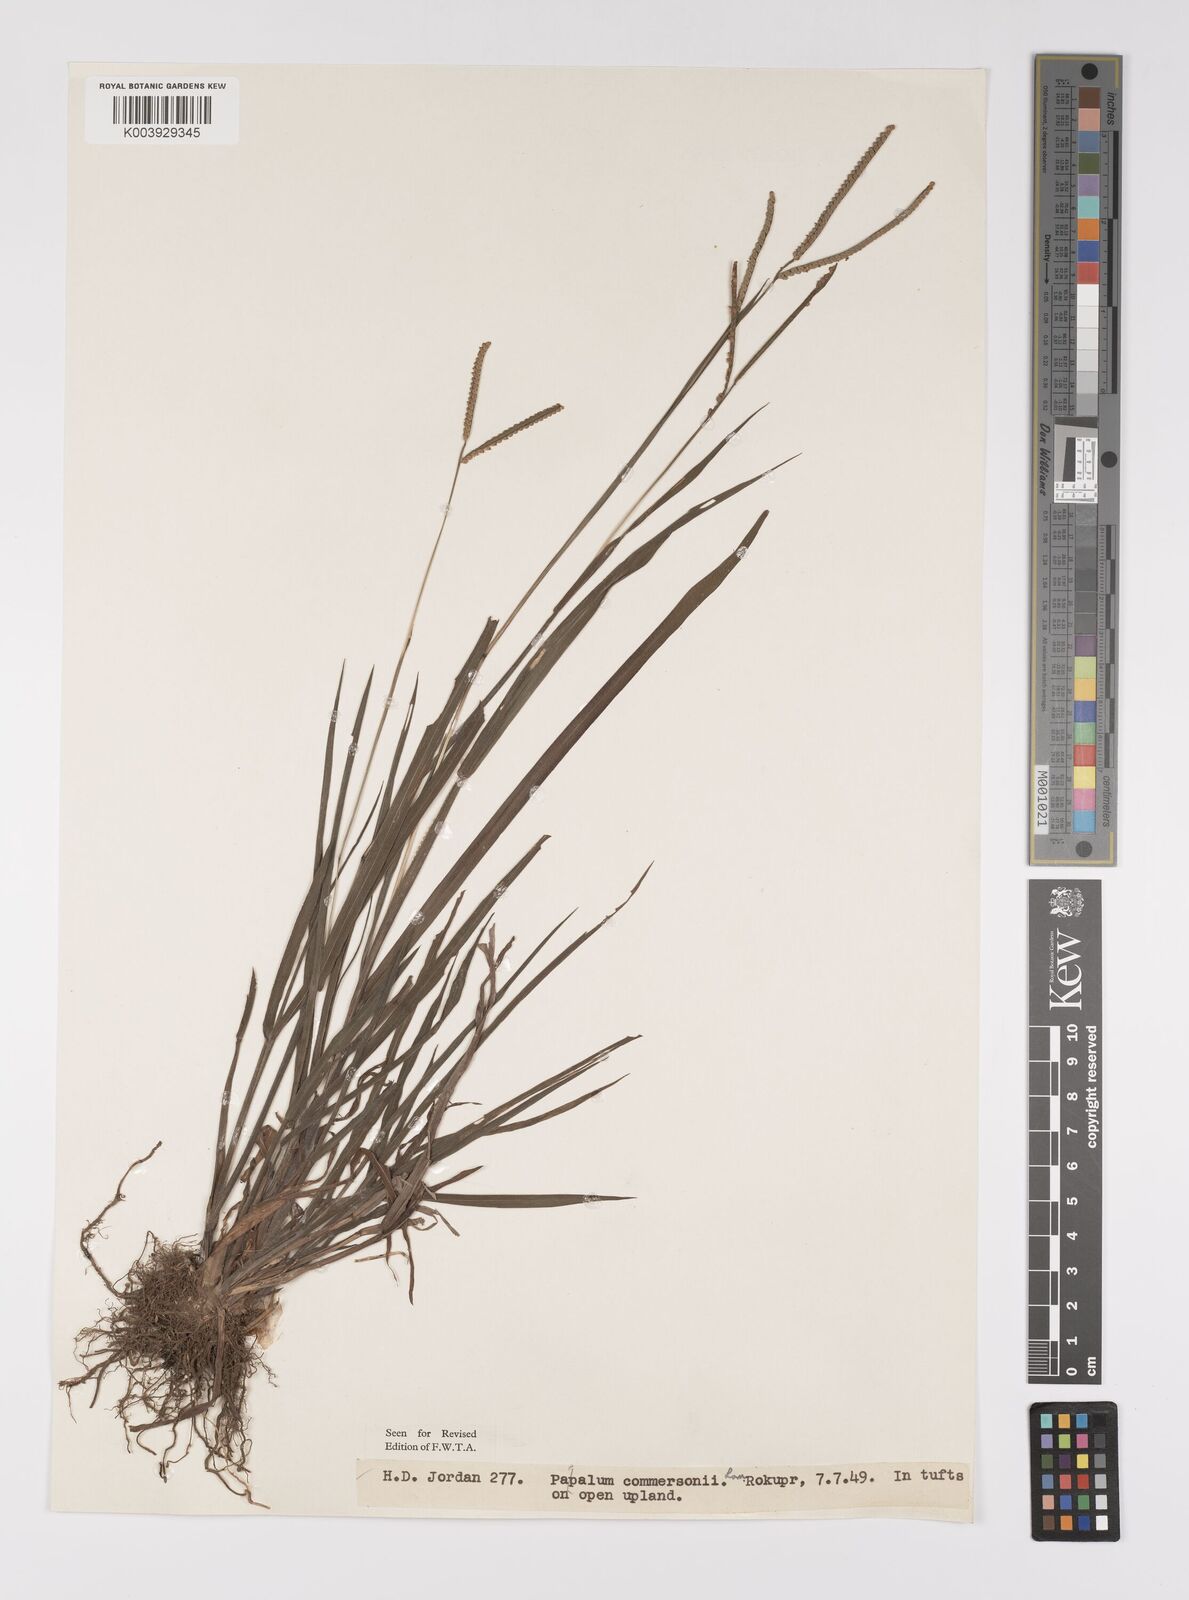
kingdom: Plantae
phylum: Tracheophyta
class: Liliopsida
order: Poales
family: Poaceae
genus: Paspalum
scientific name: Paspalum scrobiculatum
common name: Kodo millet
